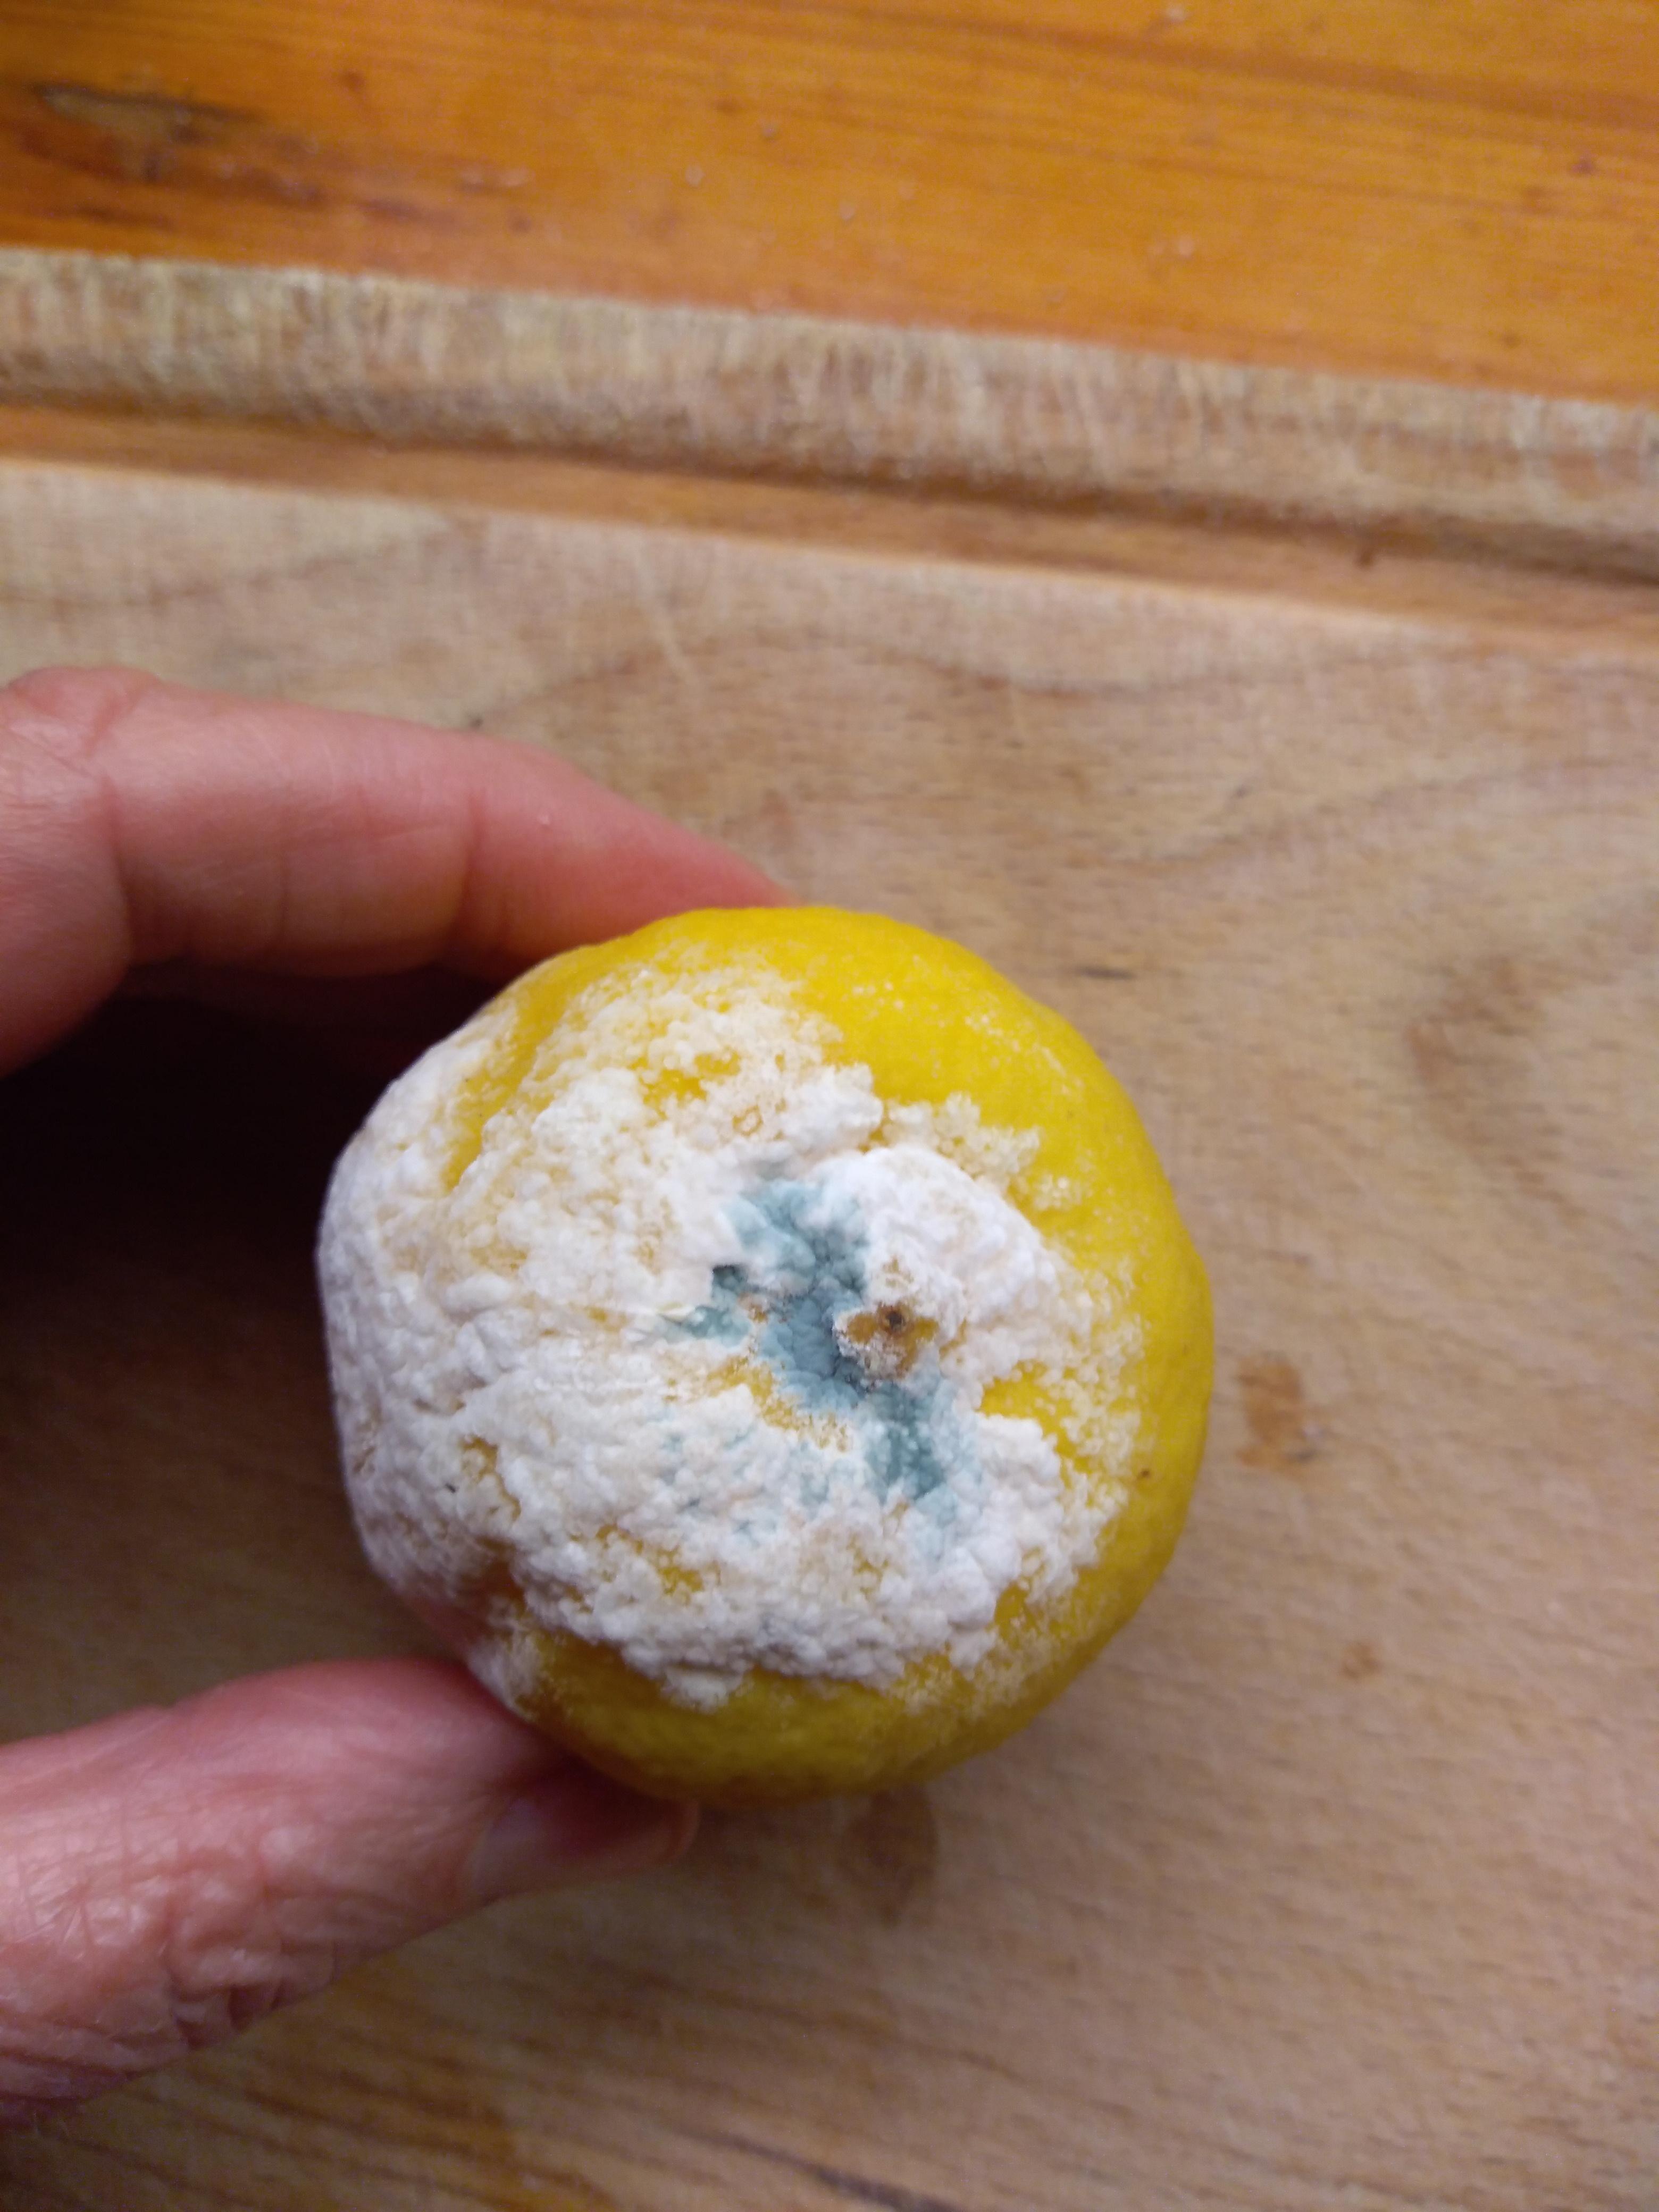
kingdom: Fungi
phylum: Ascomycota
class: Eurotiomycetes
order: Eurotiales
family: Aspergillaceae
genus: Penicillium
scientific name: Penicillium italicum
